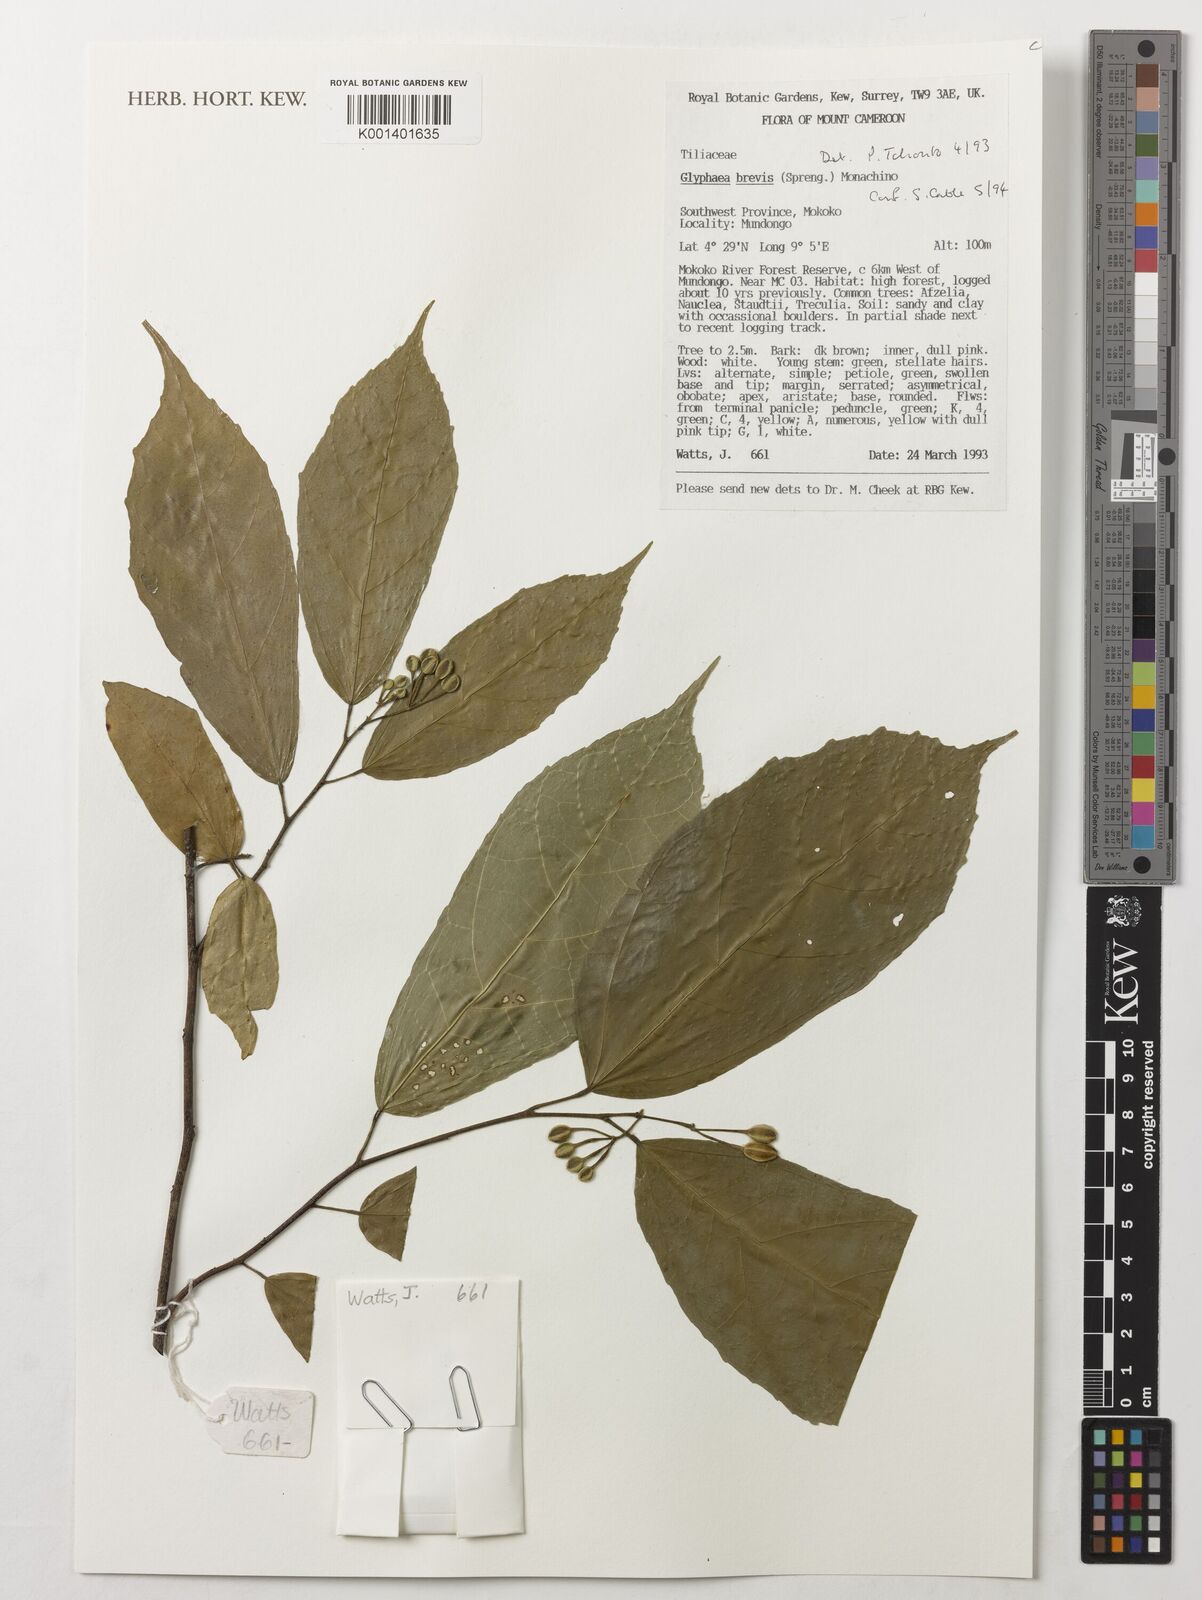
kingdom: Plantae
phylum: Tracheophyta
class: Magnoliopsida
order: Malvales
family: Malvaceae
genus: Glyphaea
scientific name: Glyphaea brevis
